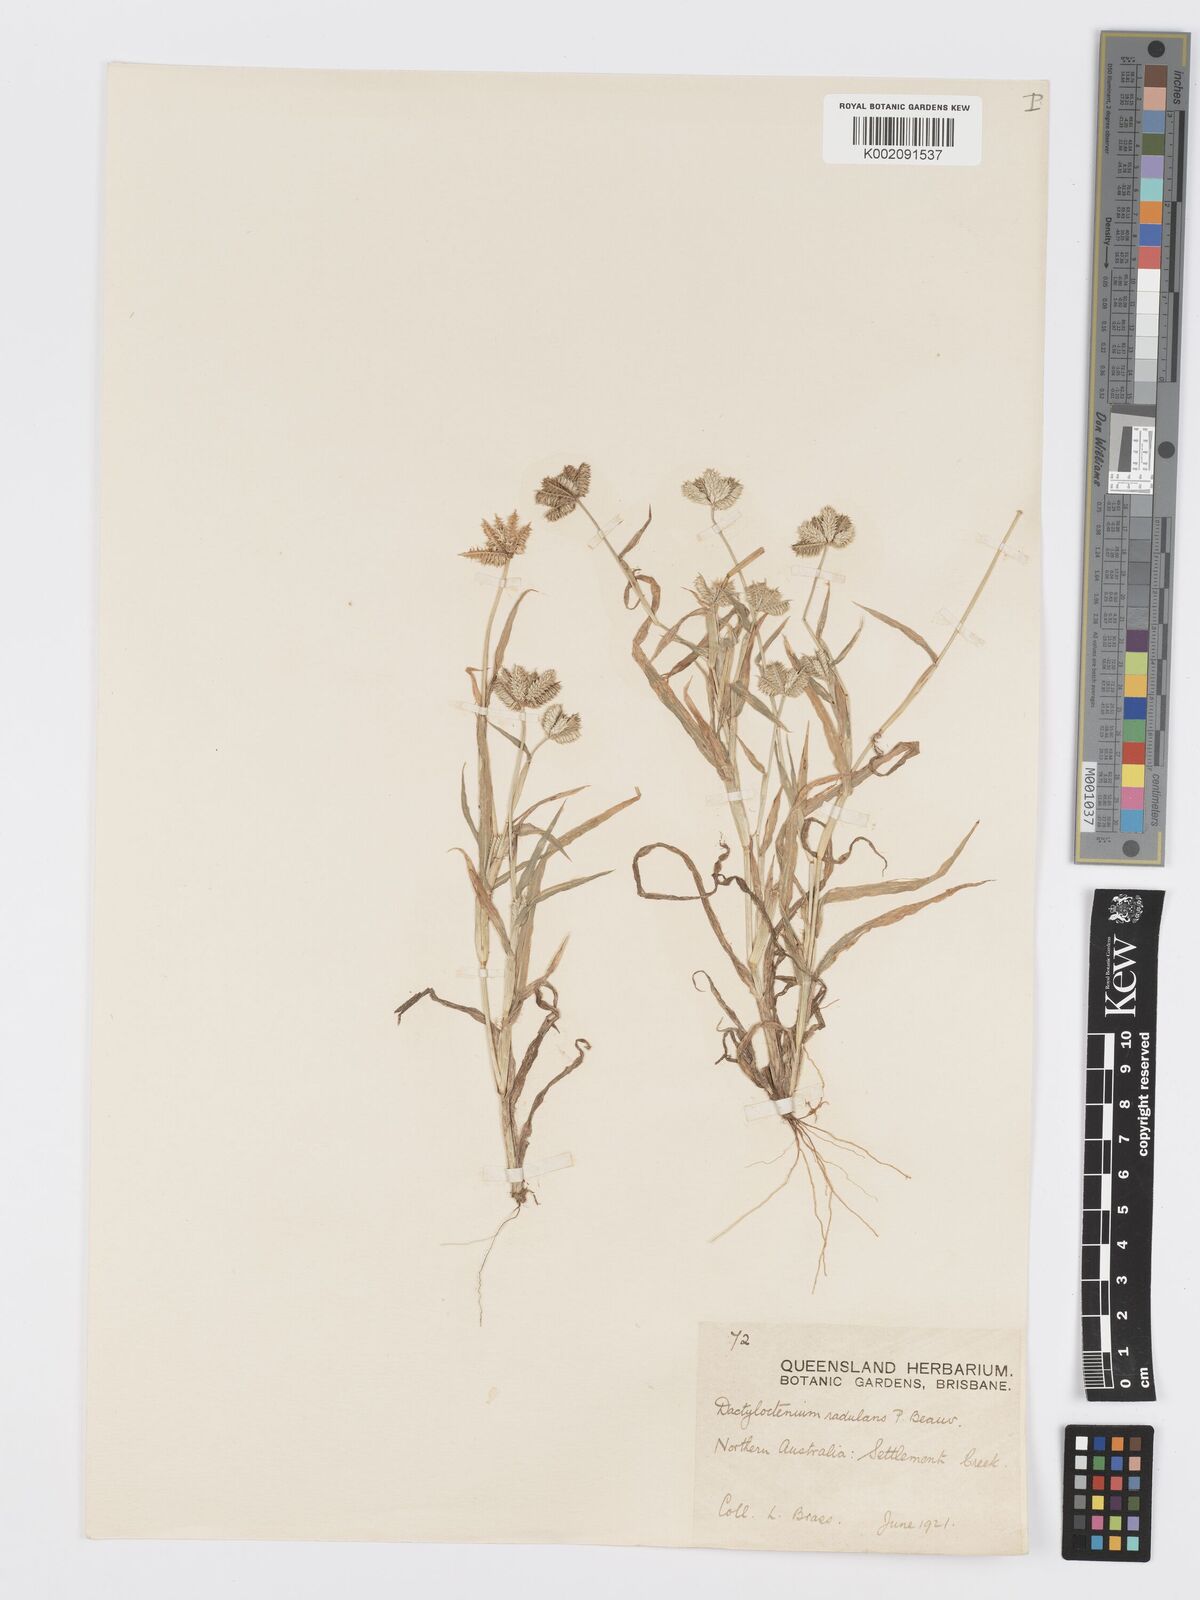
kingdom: Plantae
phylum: Tracheophyta
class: Liliopsida
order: Poales
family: Poaceae
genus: Dactyloctenium
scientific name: Dactyloctenium radulans
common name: Button-grass
